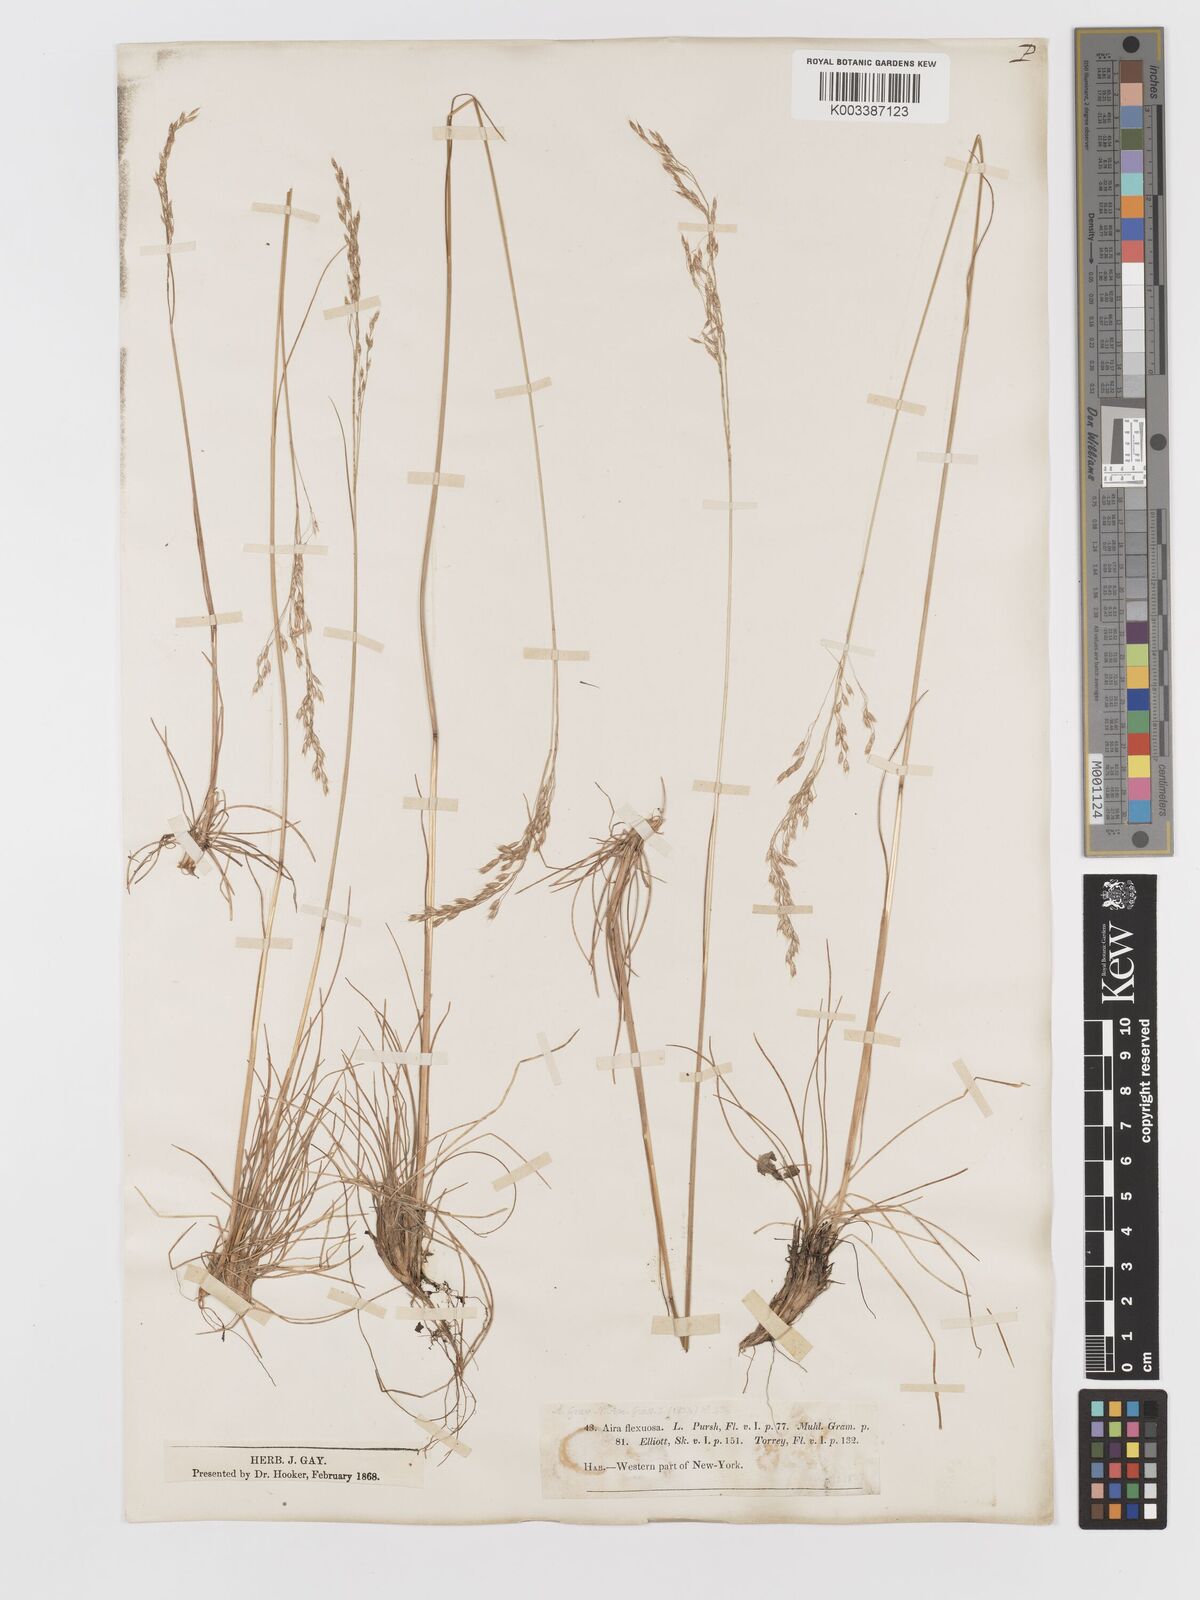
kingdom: Plantae
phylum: Tracheophyta
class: Liliopsida
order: Poales
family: Poaceae
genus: Avenella
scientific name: Avenella flexuosa
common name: Wavy hairgrass
